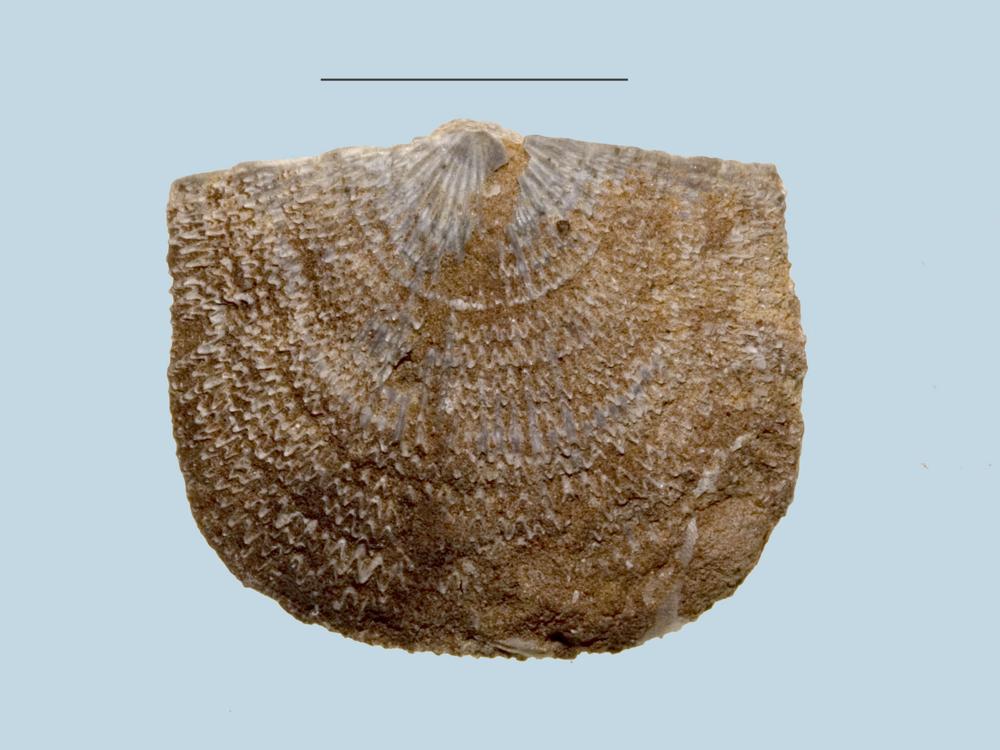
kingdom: Animalia
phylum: Brachiopoda
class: Rhynchonellata
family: Clitambonitidae
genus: Clitambonites
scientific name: Clitambonites squamatus
